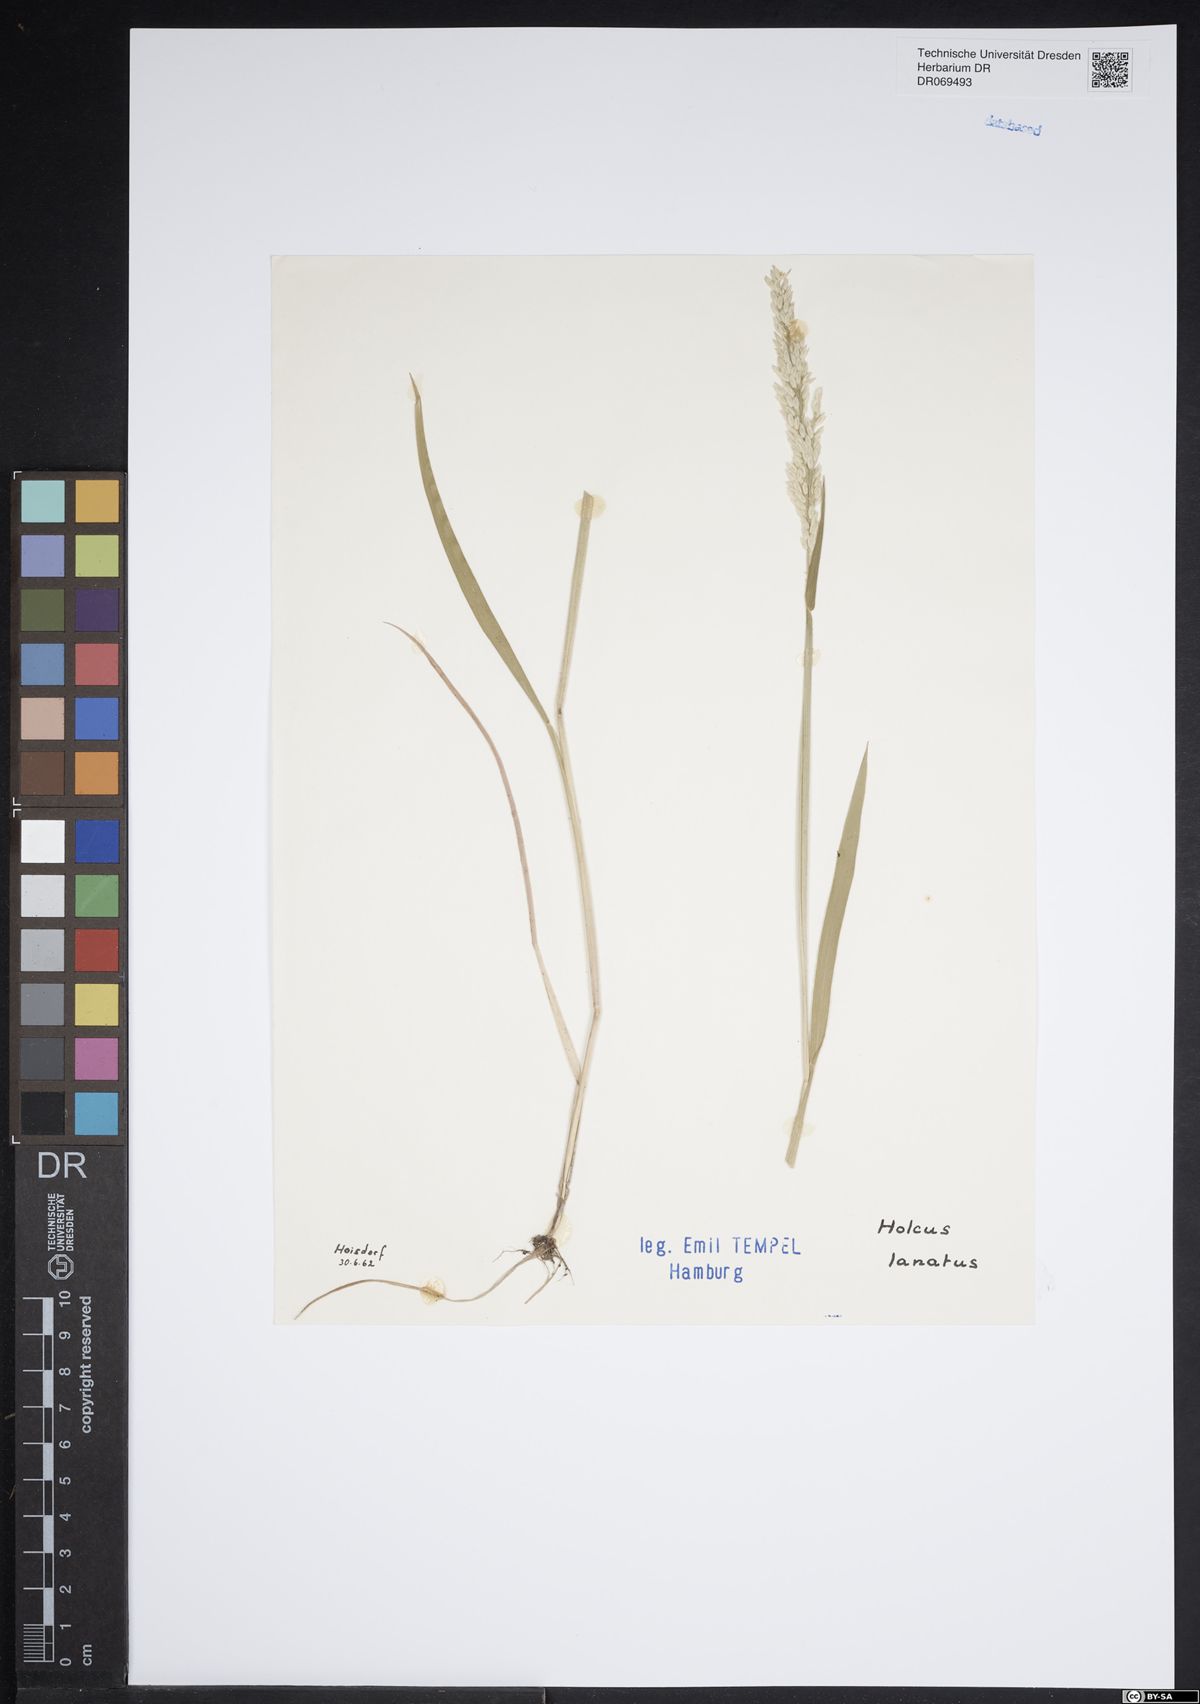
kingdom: Plantae
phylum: Tracheophyta
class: Liliopsida
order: Poales
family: Poaceae
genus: Holcus
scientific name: Holcus lanatus
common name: Yorkshire-fog
